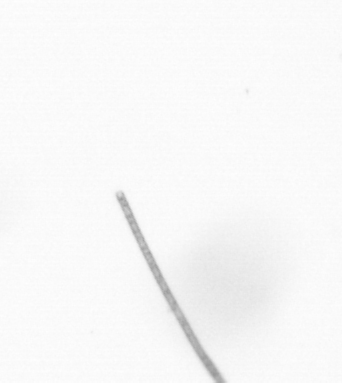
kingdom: Chromista
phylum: Ochrophyta
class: Bacillariophyceae
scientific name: Bacillariophyceae
